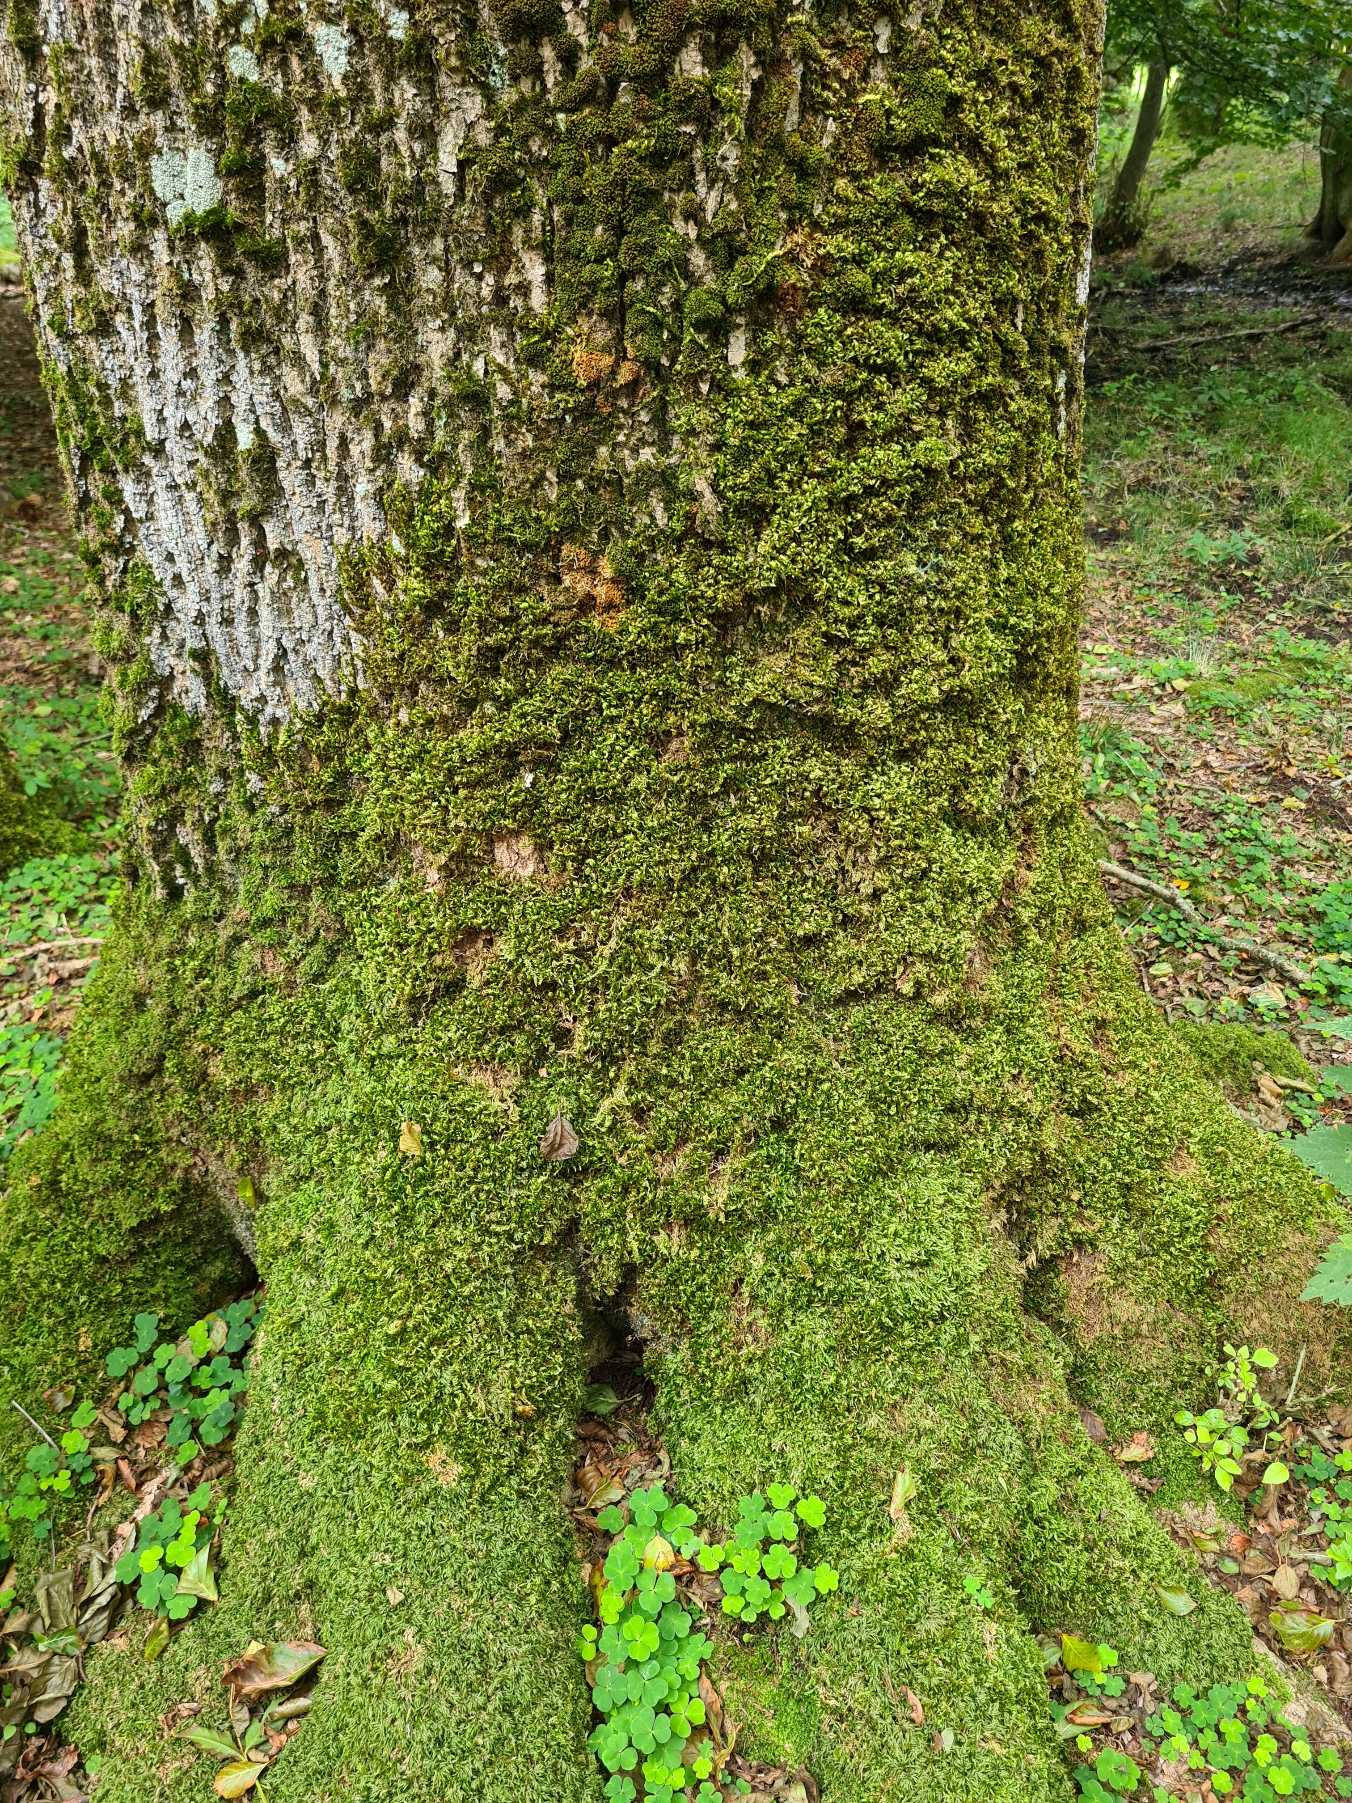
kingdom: Plantae
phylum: Bryophyta
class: Bryopsida
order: Hypnales
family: Brachytheciaceae
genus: Homalothecium
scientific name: Homalothecium sericeum
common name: Krybende silkemos
